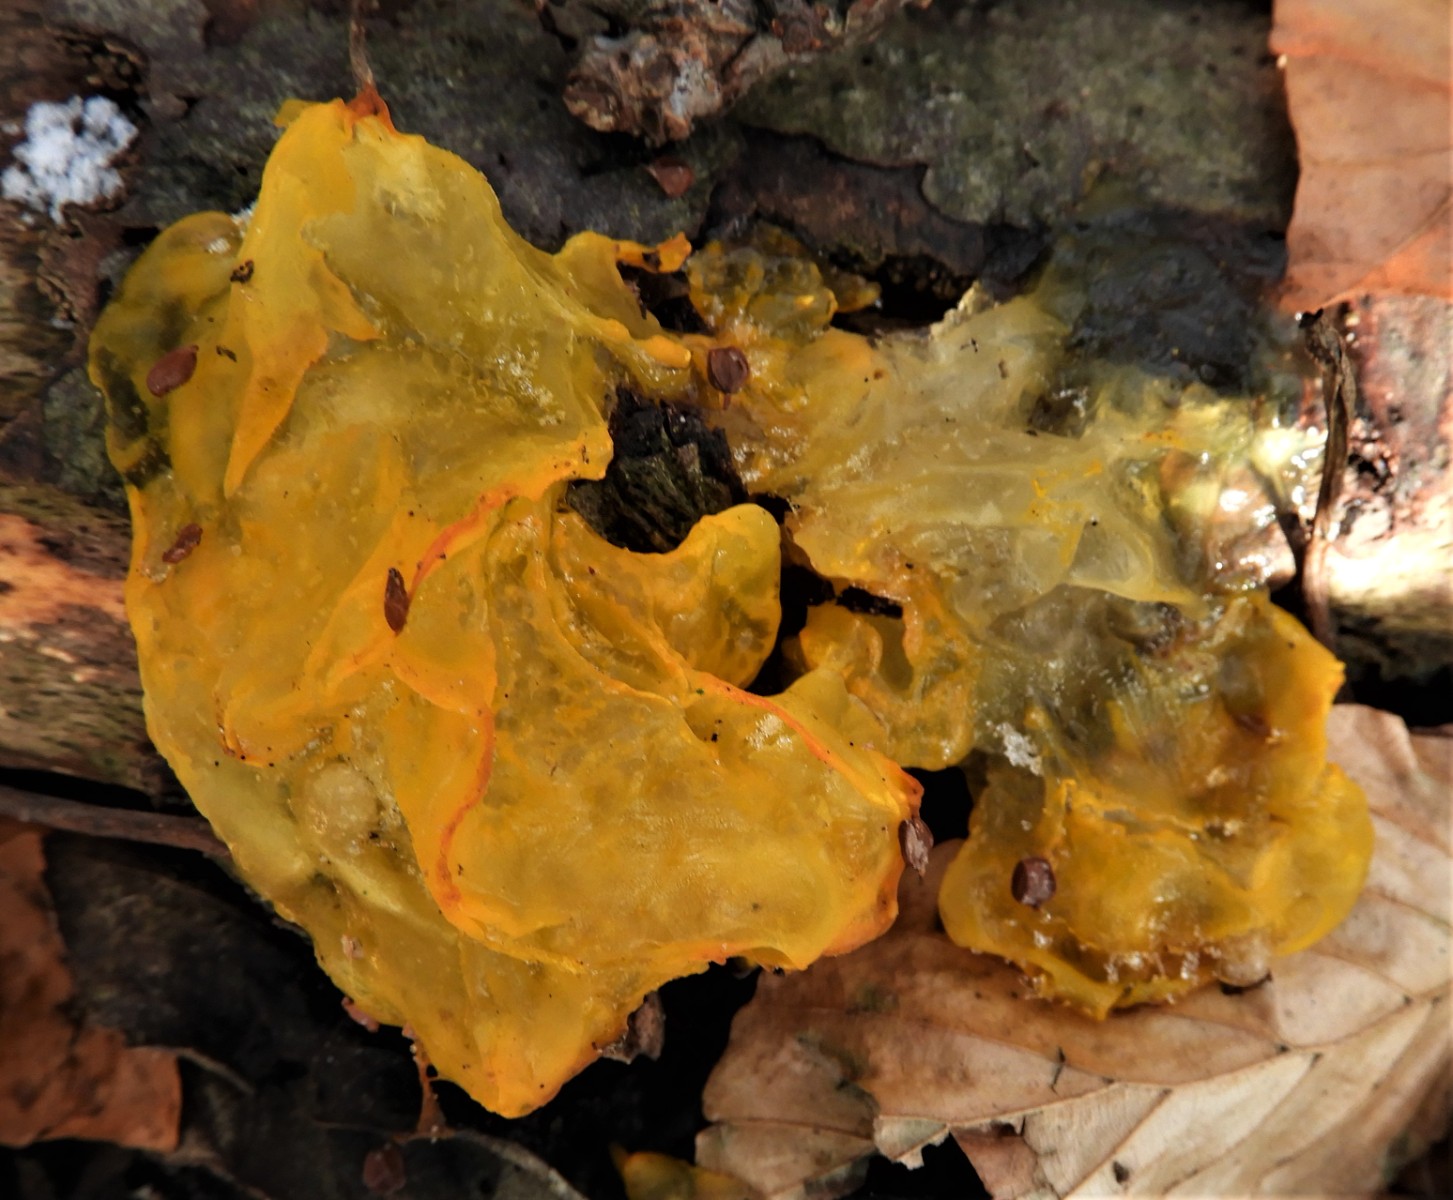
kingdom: Fungi
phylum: Basidiomycota
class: Tremellomycetes
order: Tremellales
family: Tremellaceae
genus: Tremella
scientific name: Tremella mesenterica
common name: gul bævresvamp
